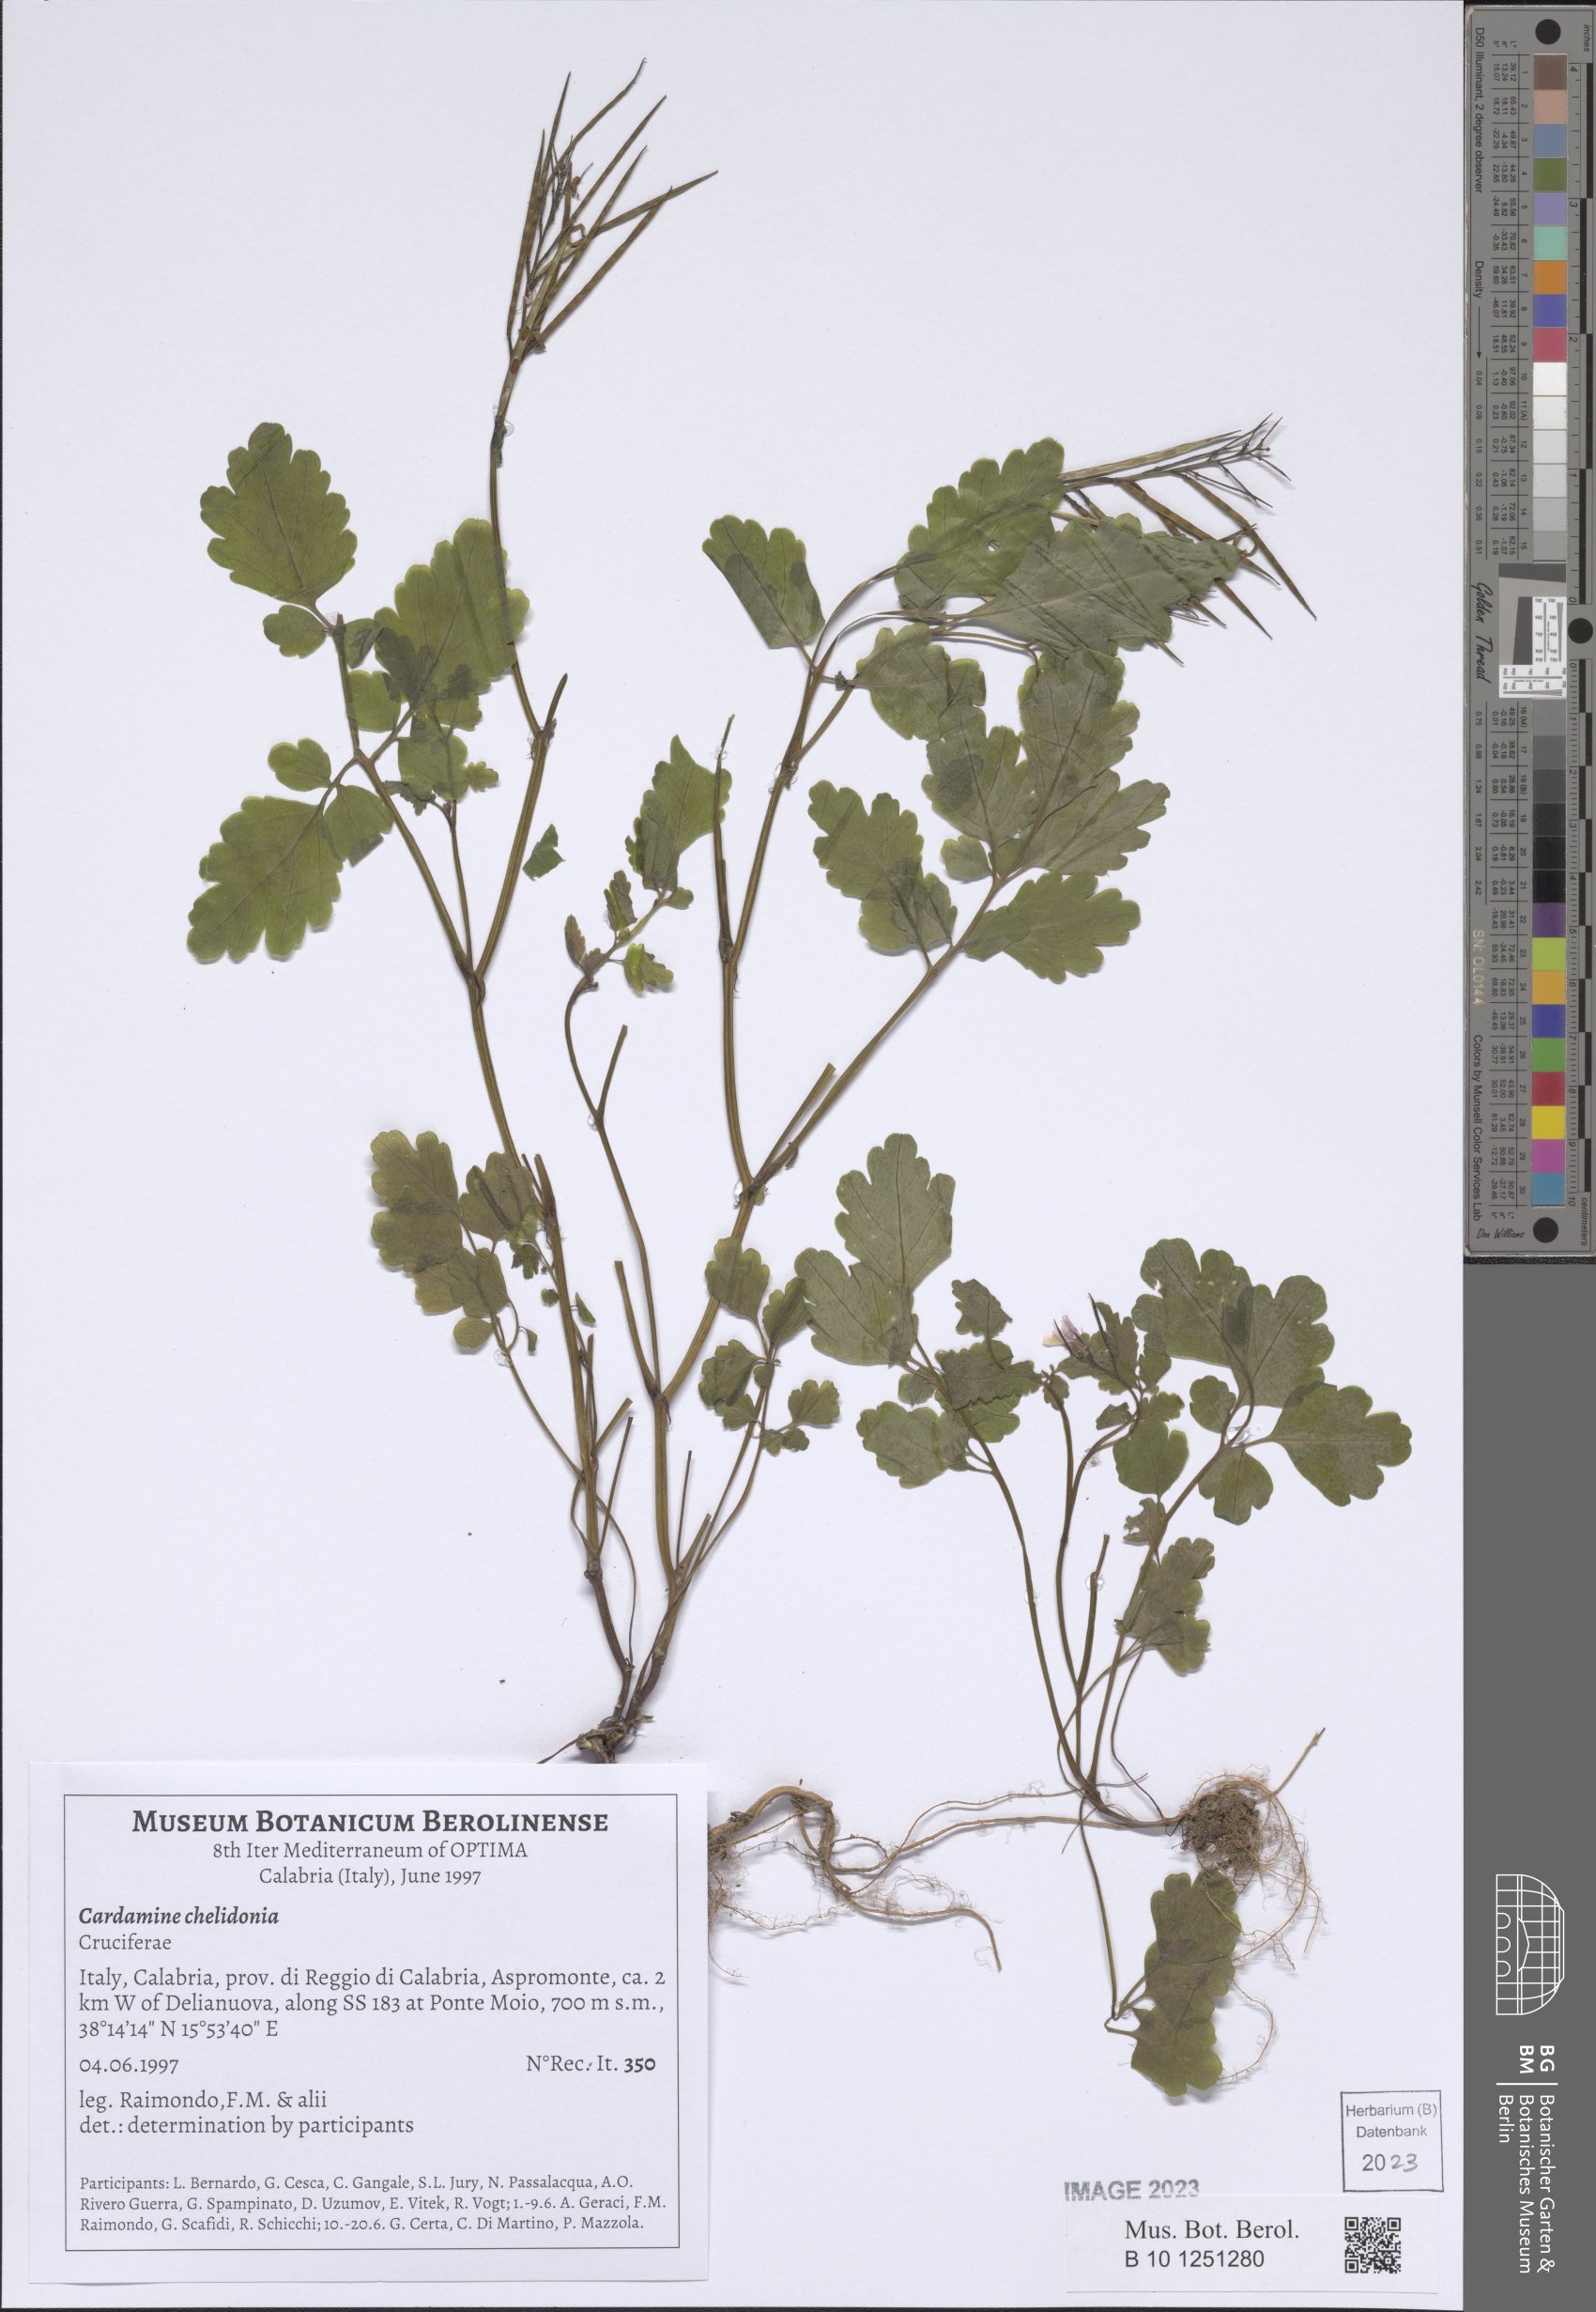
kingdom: Plantae
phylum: Tracheophyta
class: Magnoliopsida
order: Brassicales
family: Brassicaceae
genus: Cardamine
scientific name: Cardamine chelidonia
